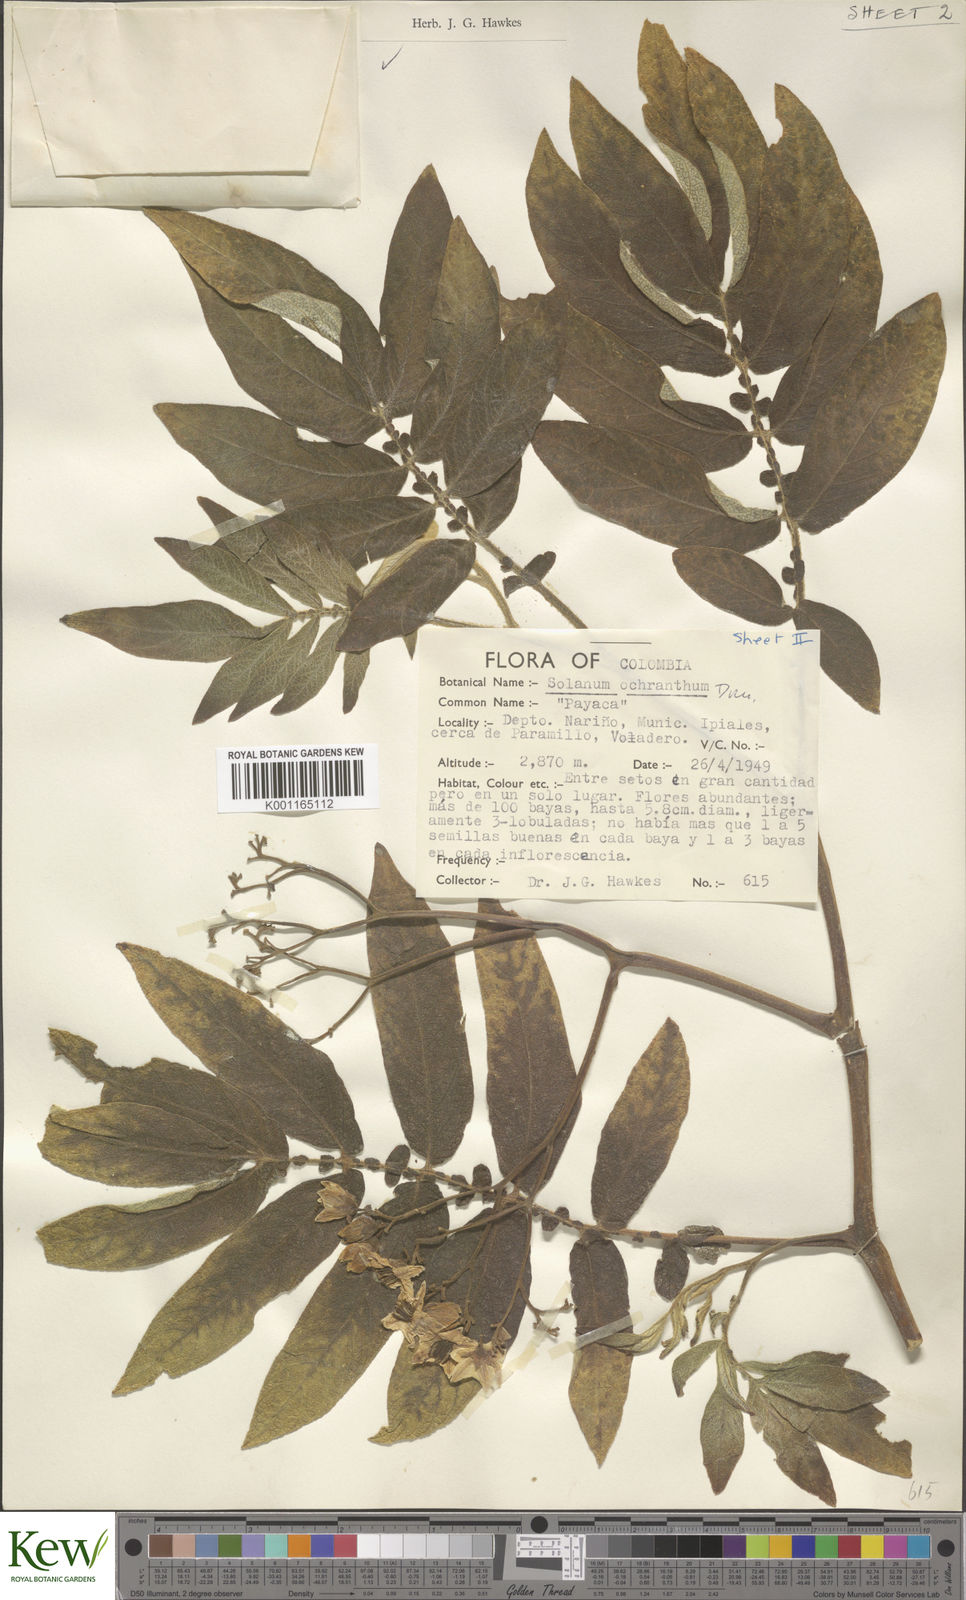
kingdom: Plantae
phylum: Tracheophyta
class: Magnoliopsida
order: Solanales
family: Solanaceae
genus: Solanum
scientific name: Solanum ochranthum
